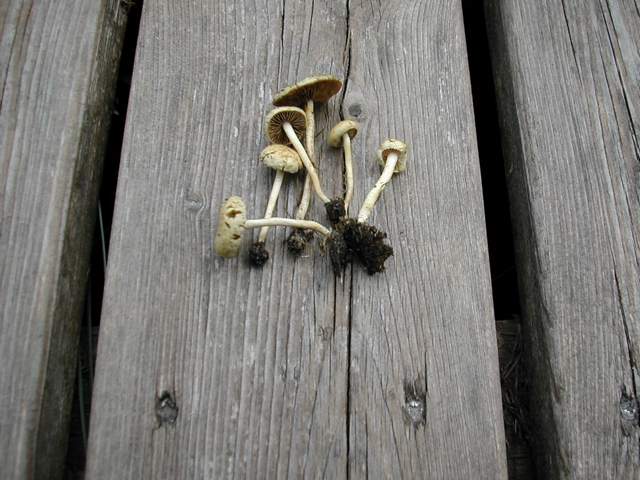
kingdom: Fungi
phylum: Basidiomycota
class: Agaricomycetes
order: Agaricales
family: Strophariaceae
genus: Agrocybe
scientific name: Agrocybe pediades
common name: almindelig agerhat
